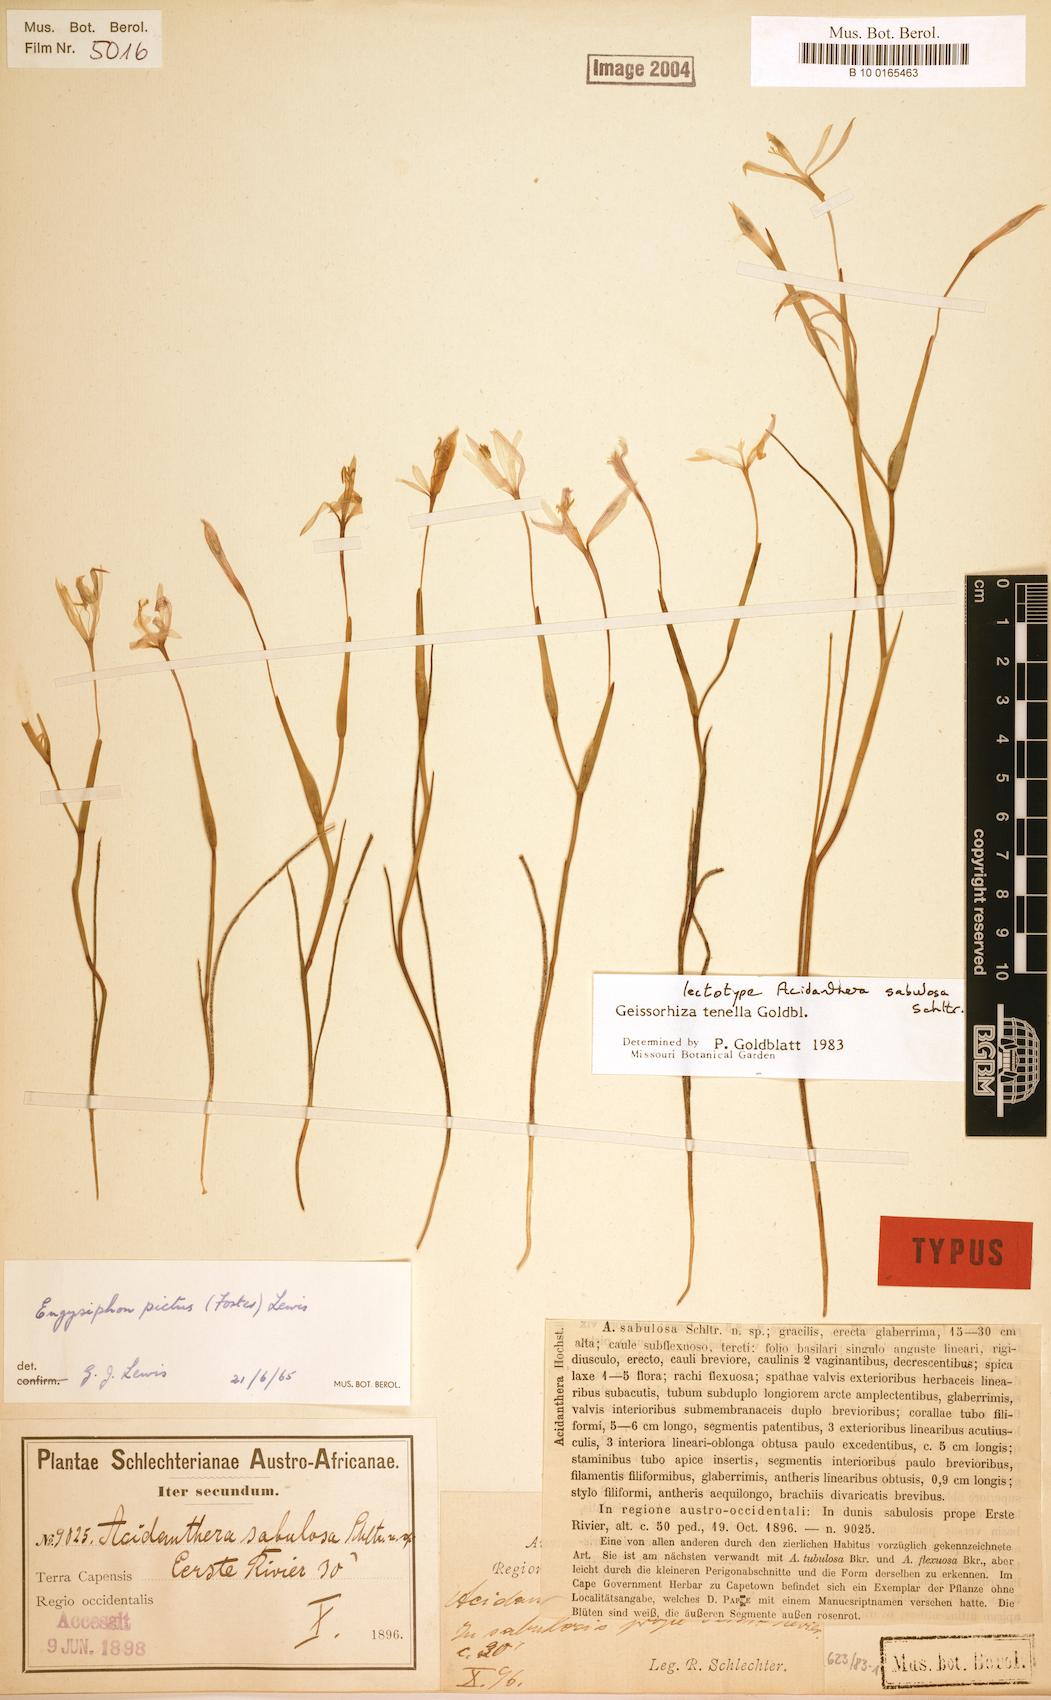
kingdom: Plantae
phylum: Tracheophyta
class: Liliopsida
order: Asparagales
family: Iridaceae
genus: Geissorhiza
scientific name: Geissorhiza tenella
